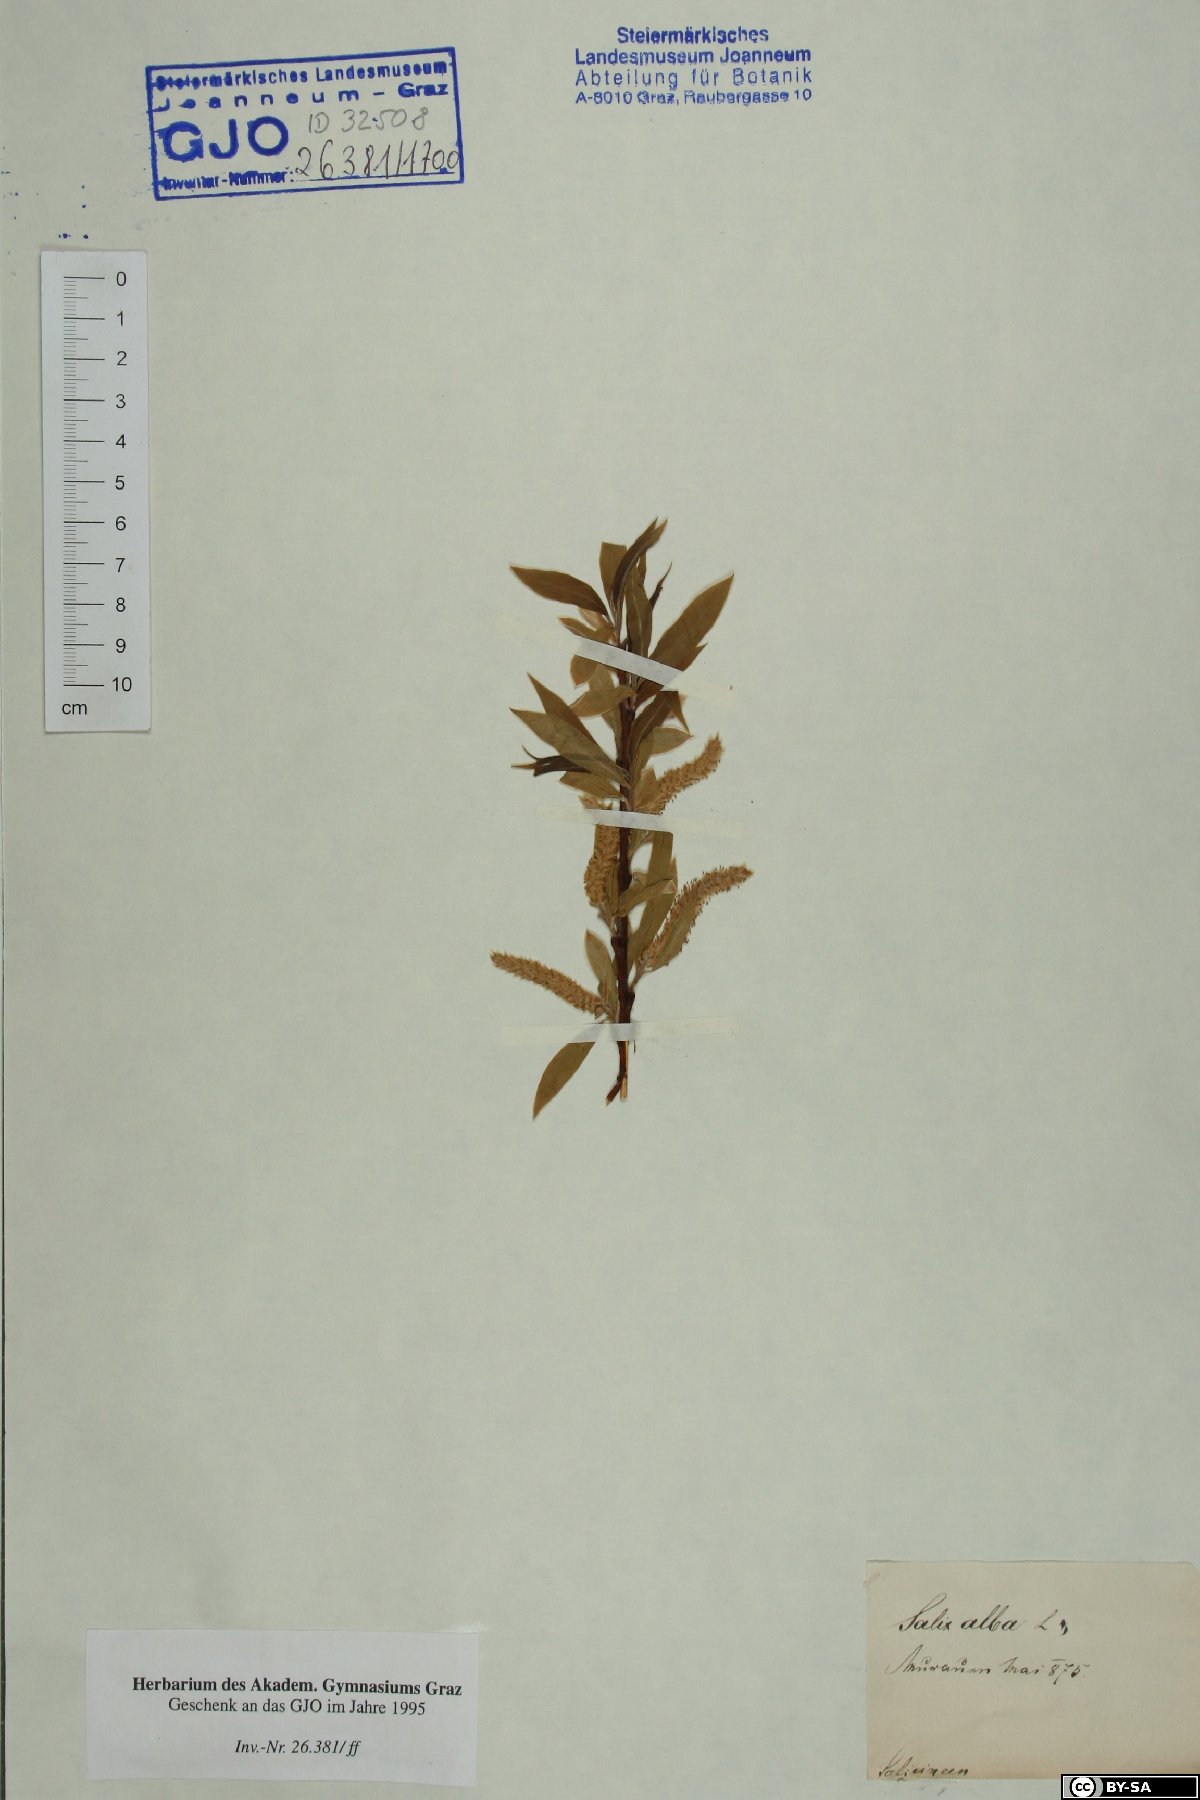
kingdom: Plantae
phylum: Tracheophyta
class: Magnoliopsida
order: Malpighiales
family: Salicaceae
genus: Salix
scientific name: Salix alba
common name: White willow
